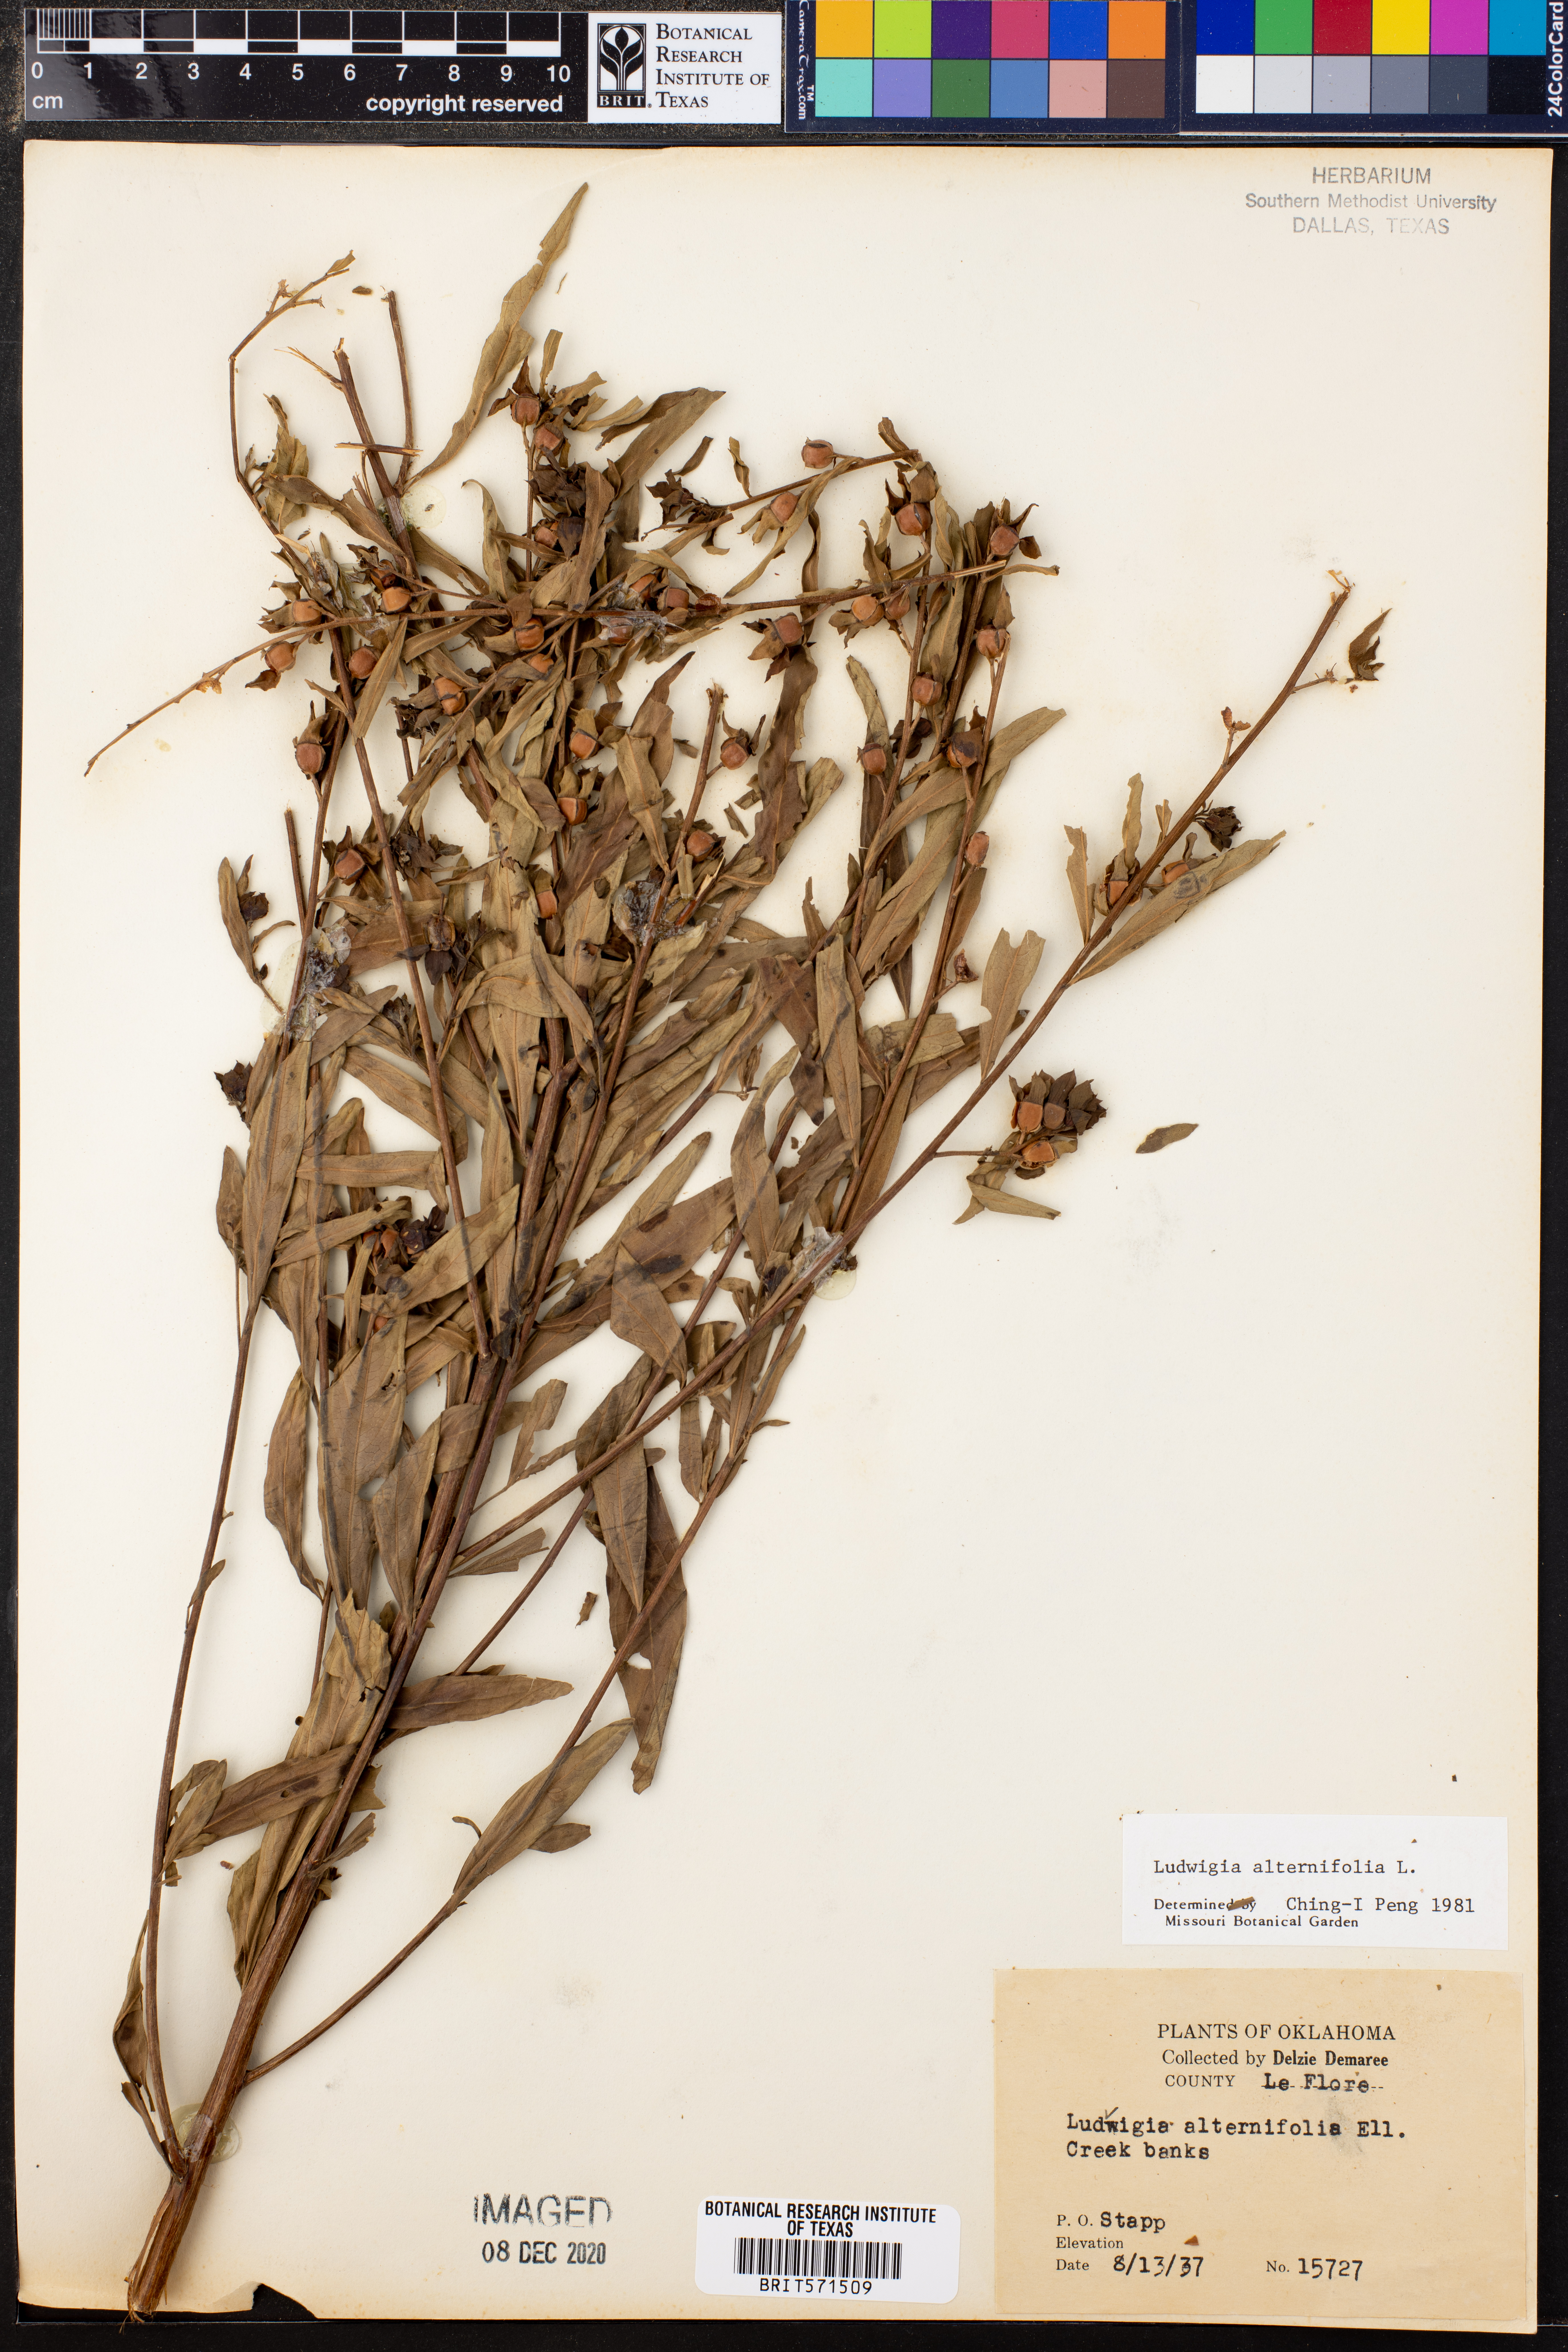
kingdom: Plantae
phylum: Tracheophyta
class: Magnoliopsida
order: Myrtales
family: Onagraceae
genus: Ludwigia
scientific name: Ludwigia alternifolia
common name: Rattlebox
